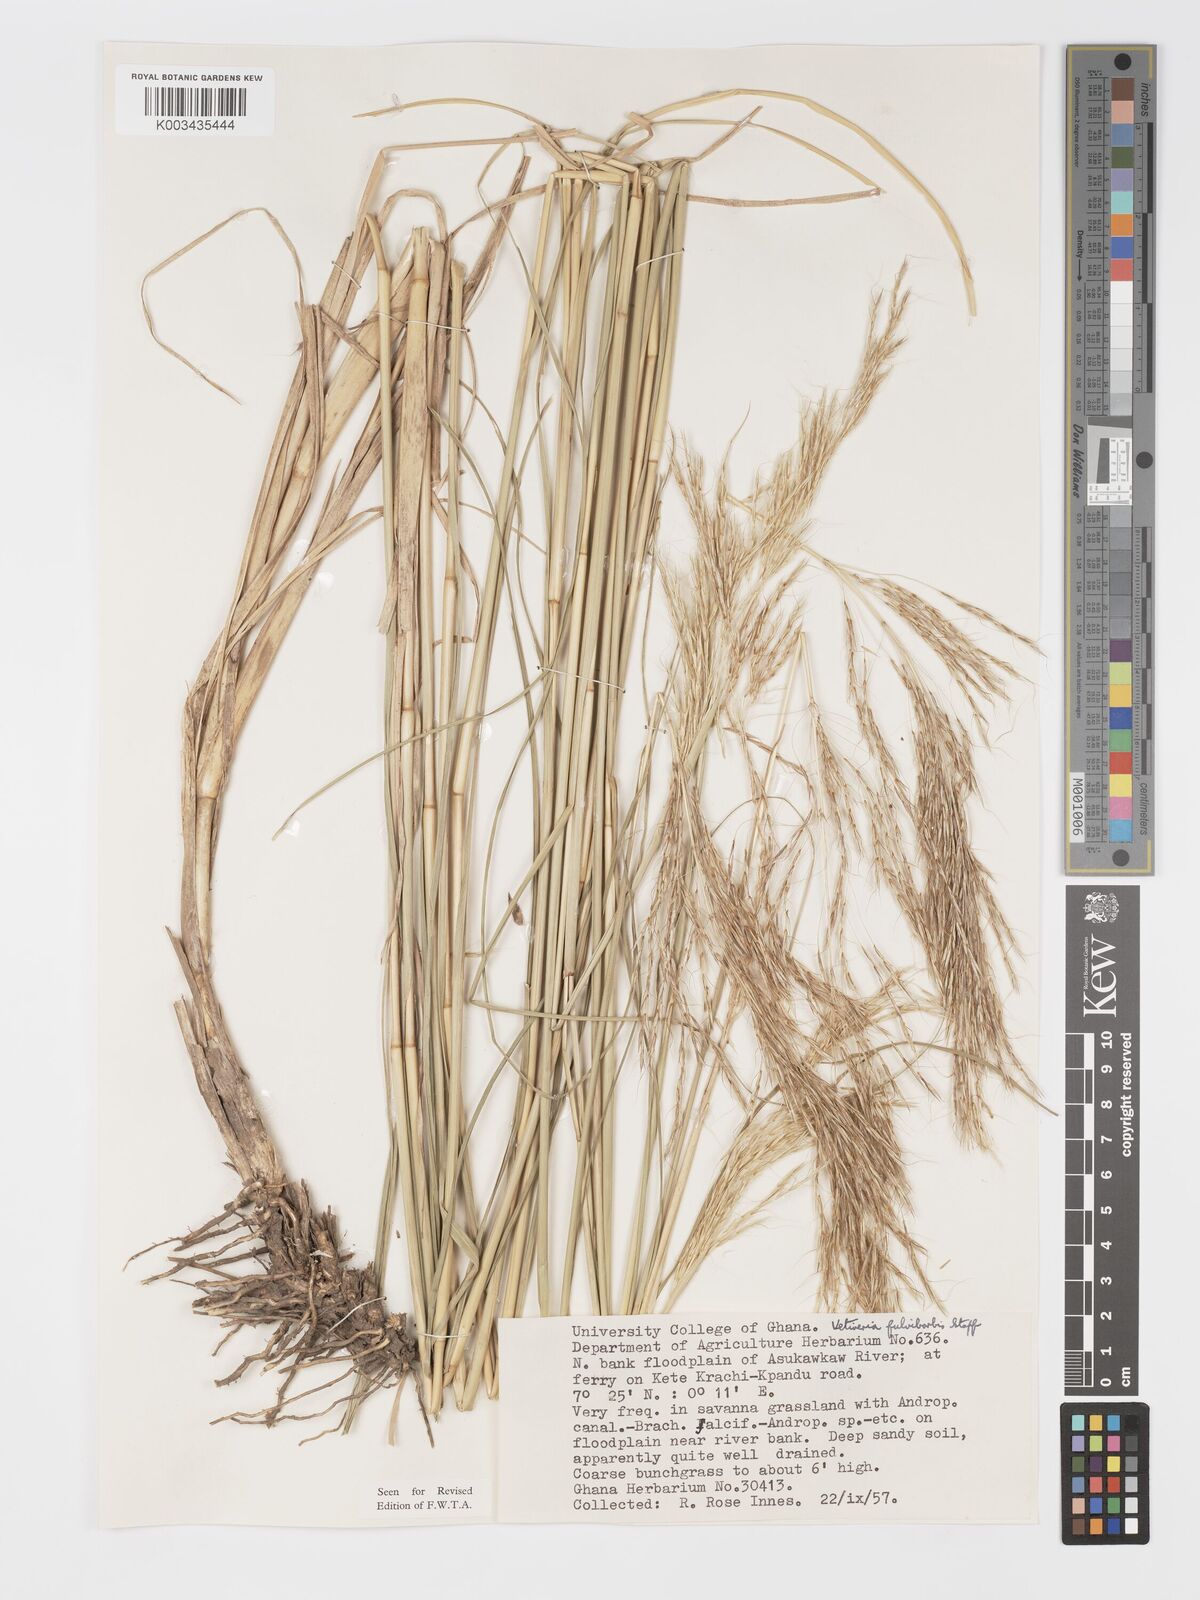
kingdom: Plantae
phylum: Tracheophyta
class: Liliopsida
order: Poales
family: Poaceae
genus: Chrysopogon
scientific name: Chrysopogon fulvibarbis
